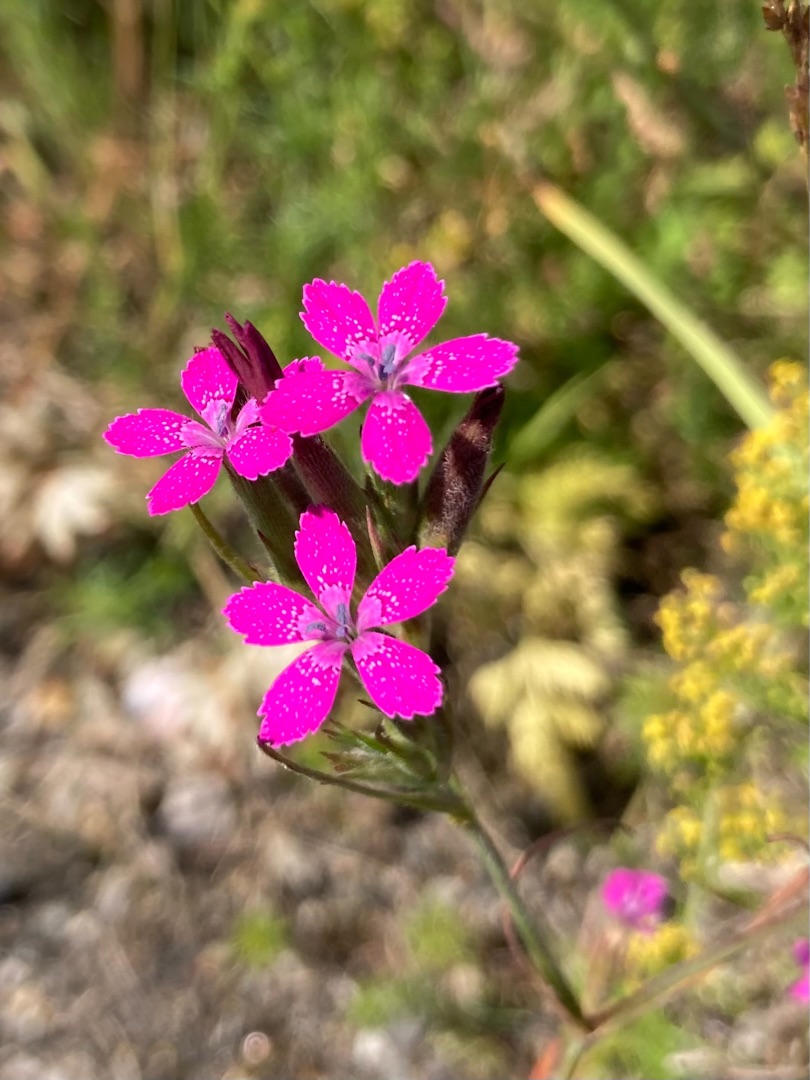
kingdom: Plantae
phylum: Tracheophyta
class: Magnoliopsida
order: Caryophyllales
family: Caryophyllaceae
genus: Dianthus
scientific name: Dianthus armeria
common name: Kost-nellike
